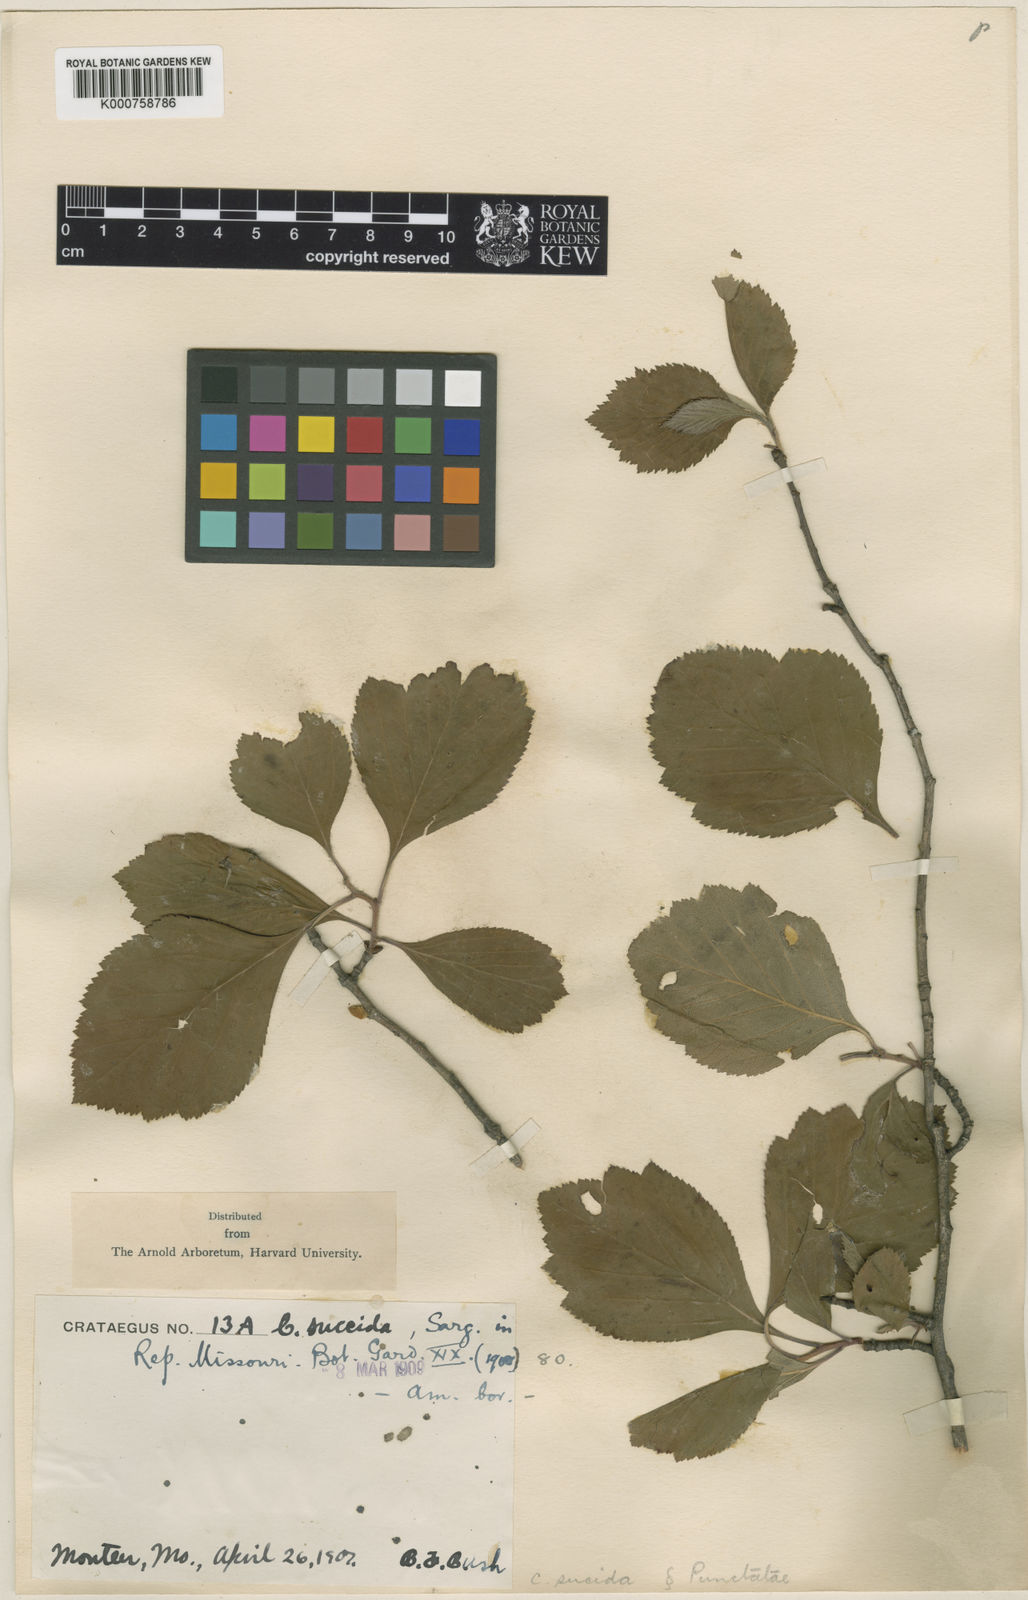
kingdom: Plantae
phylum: Tracheophyta
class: Magnoliopsida
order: Rosales
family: Rosaceae
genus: Crataegus
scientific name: Crataegus sucida
